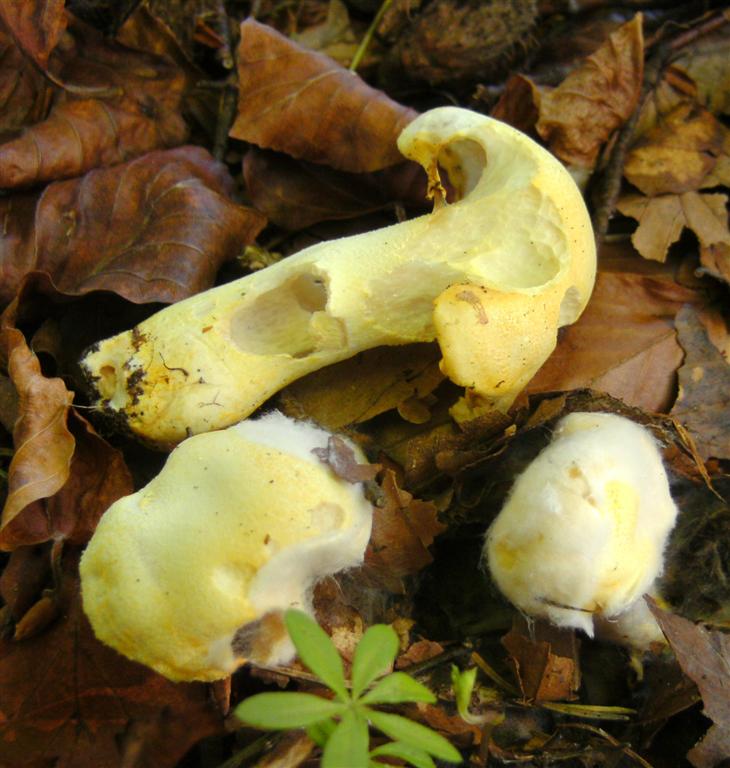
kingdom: Fungi
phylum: Basidiomycota
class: Agaricomycetes
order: Agaricales
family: Hygrophoraceae
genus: Hygrophorus
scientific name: Hygrophorus chrysodon
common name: gulfnugget sneglehat
